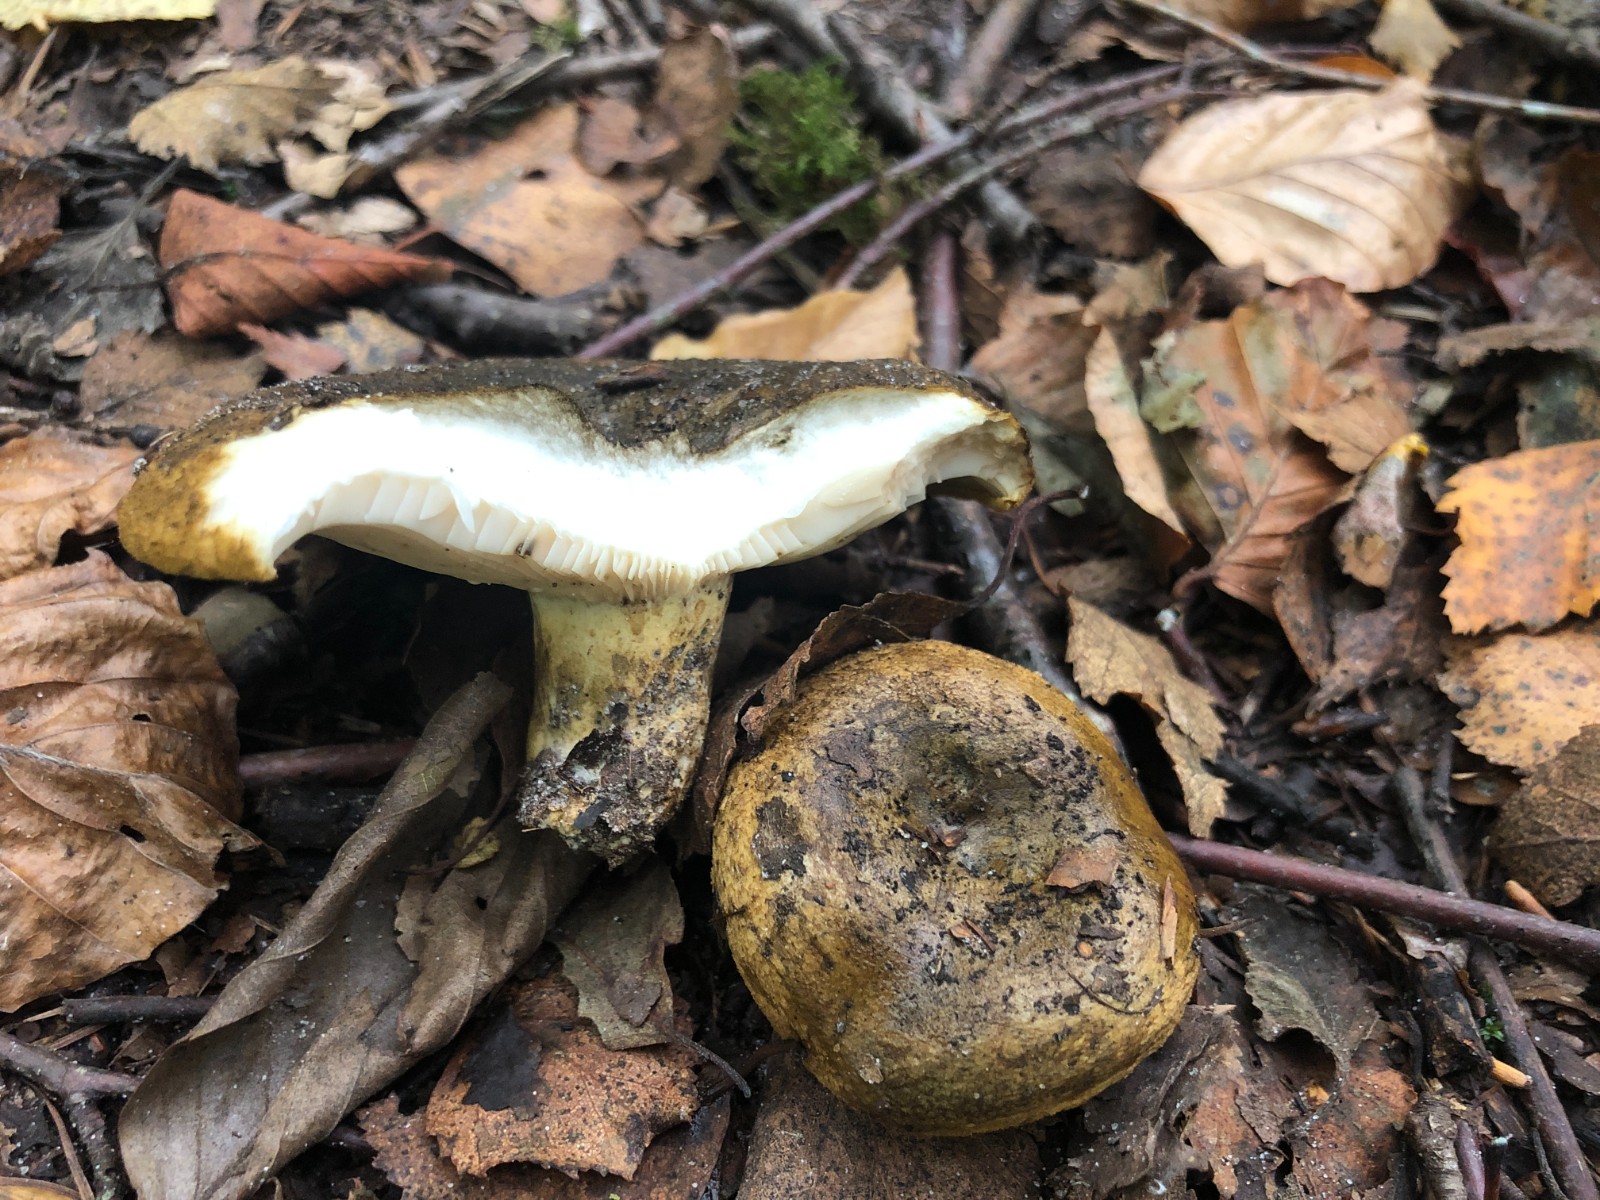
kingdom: Fungi
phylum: Basidiomycota
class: Agaricomycetes
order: Russulales
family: Russulaceae
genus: Lactarius
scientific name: Lactarius necator
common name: manddraber-mælkehat
